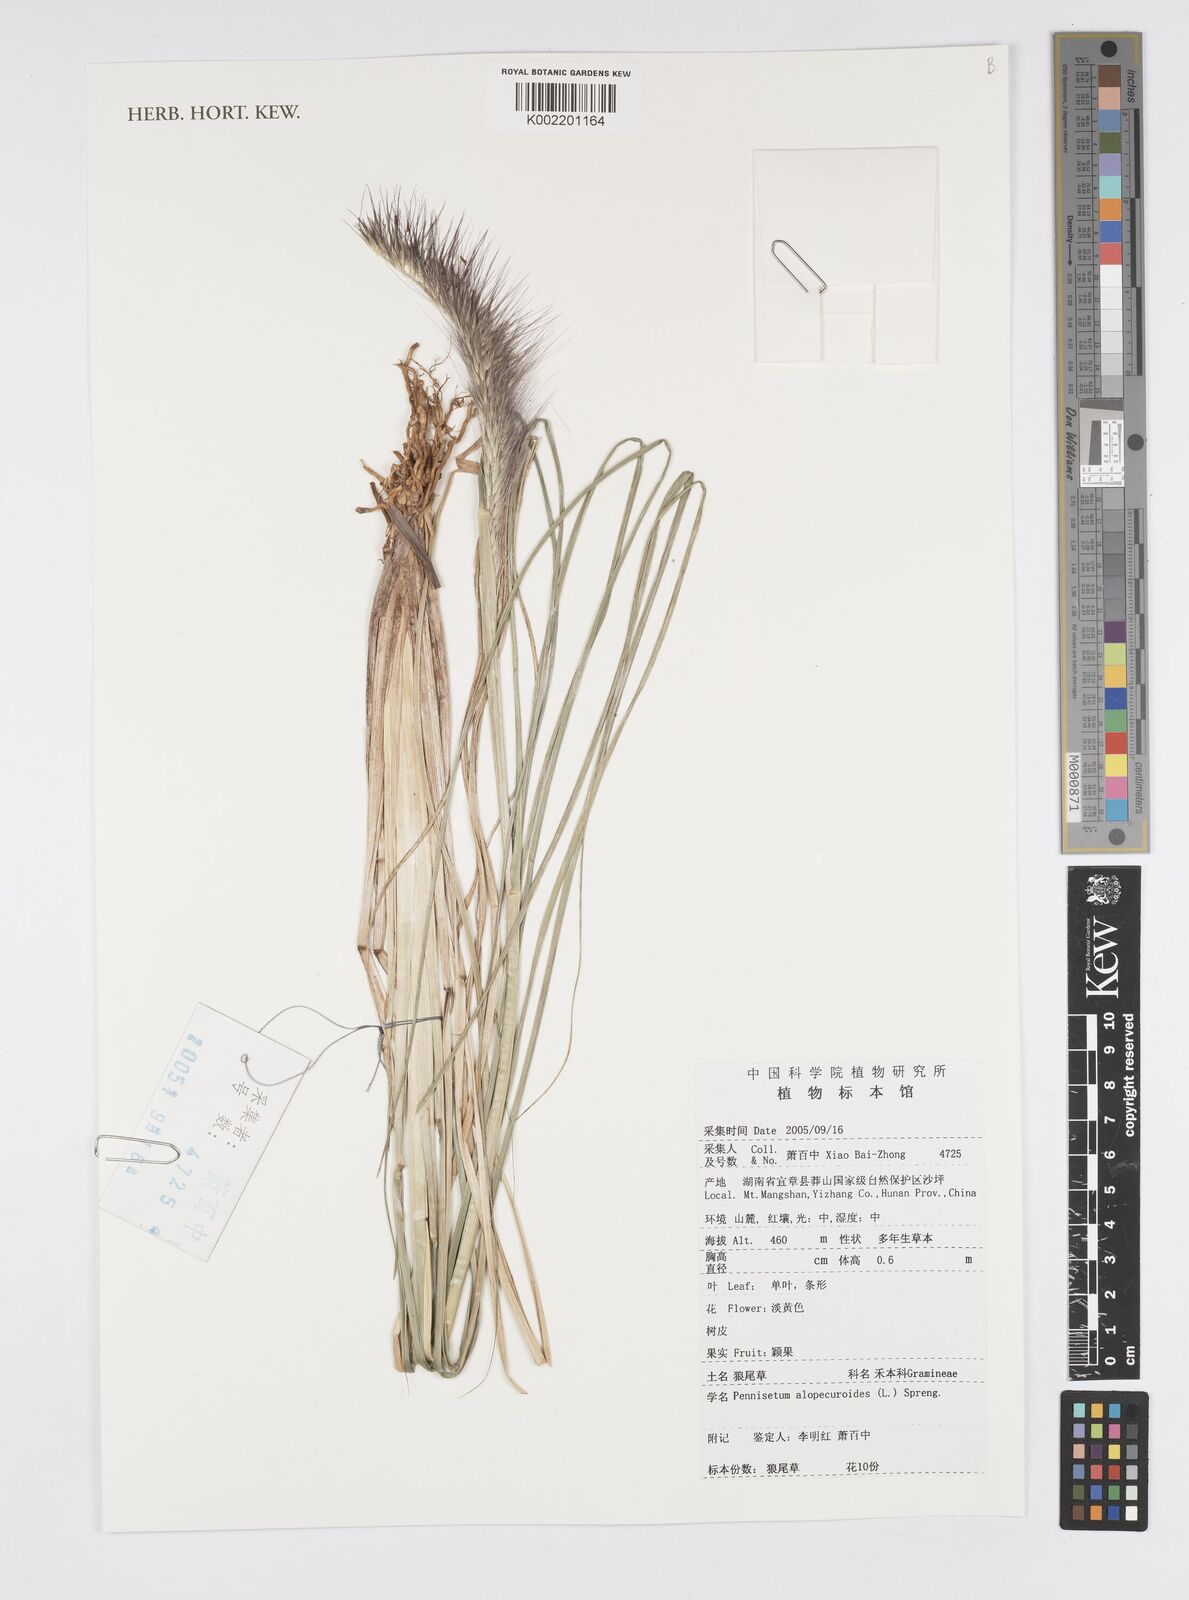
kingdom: Plantae
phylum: Tracheophyta
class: Liliopsida
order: Poales
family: Poaceae
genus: Cenchrus
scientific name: Cenchrus alopecuroides
